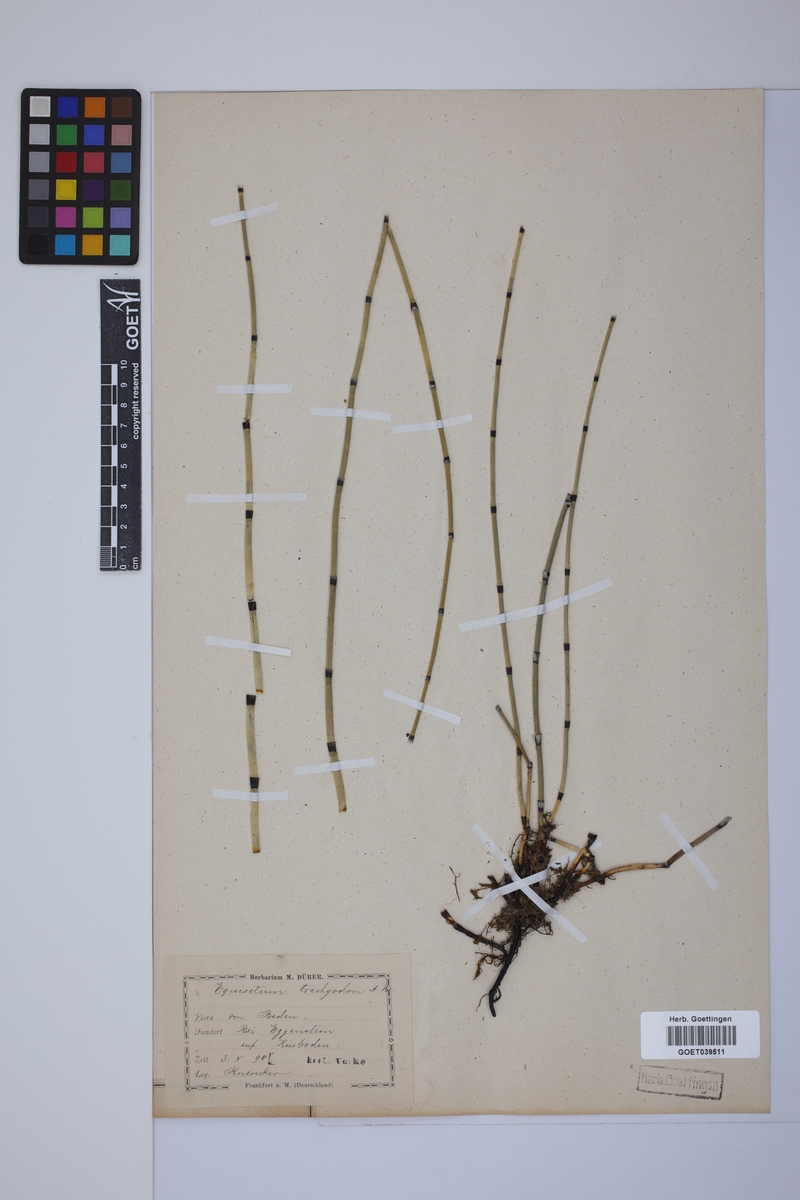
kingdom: Plantae
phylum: Tracheophyta
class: Polypodiopsida
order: Equisetales
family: Equisetaceae
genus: Equisetum
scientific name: Equisetum trachyodon
